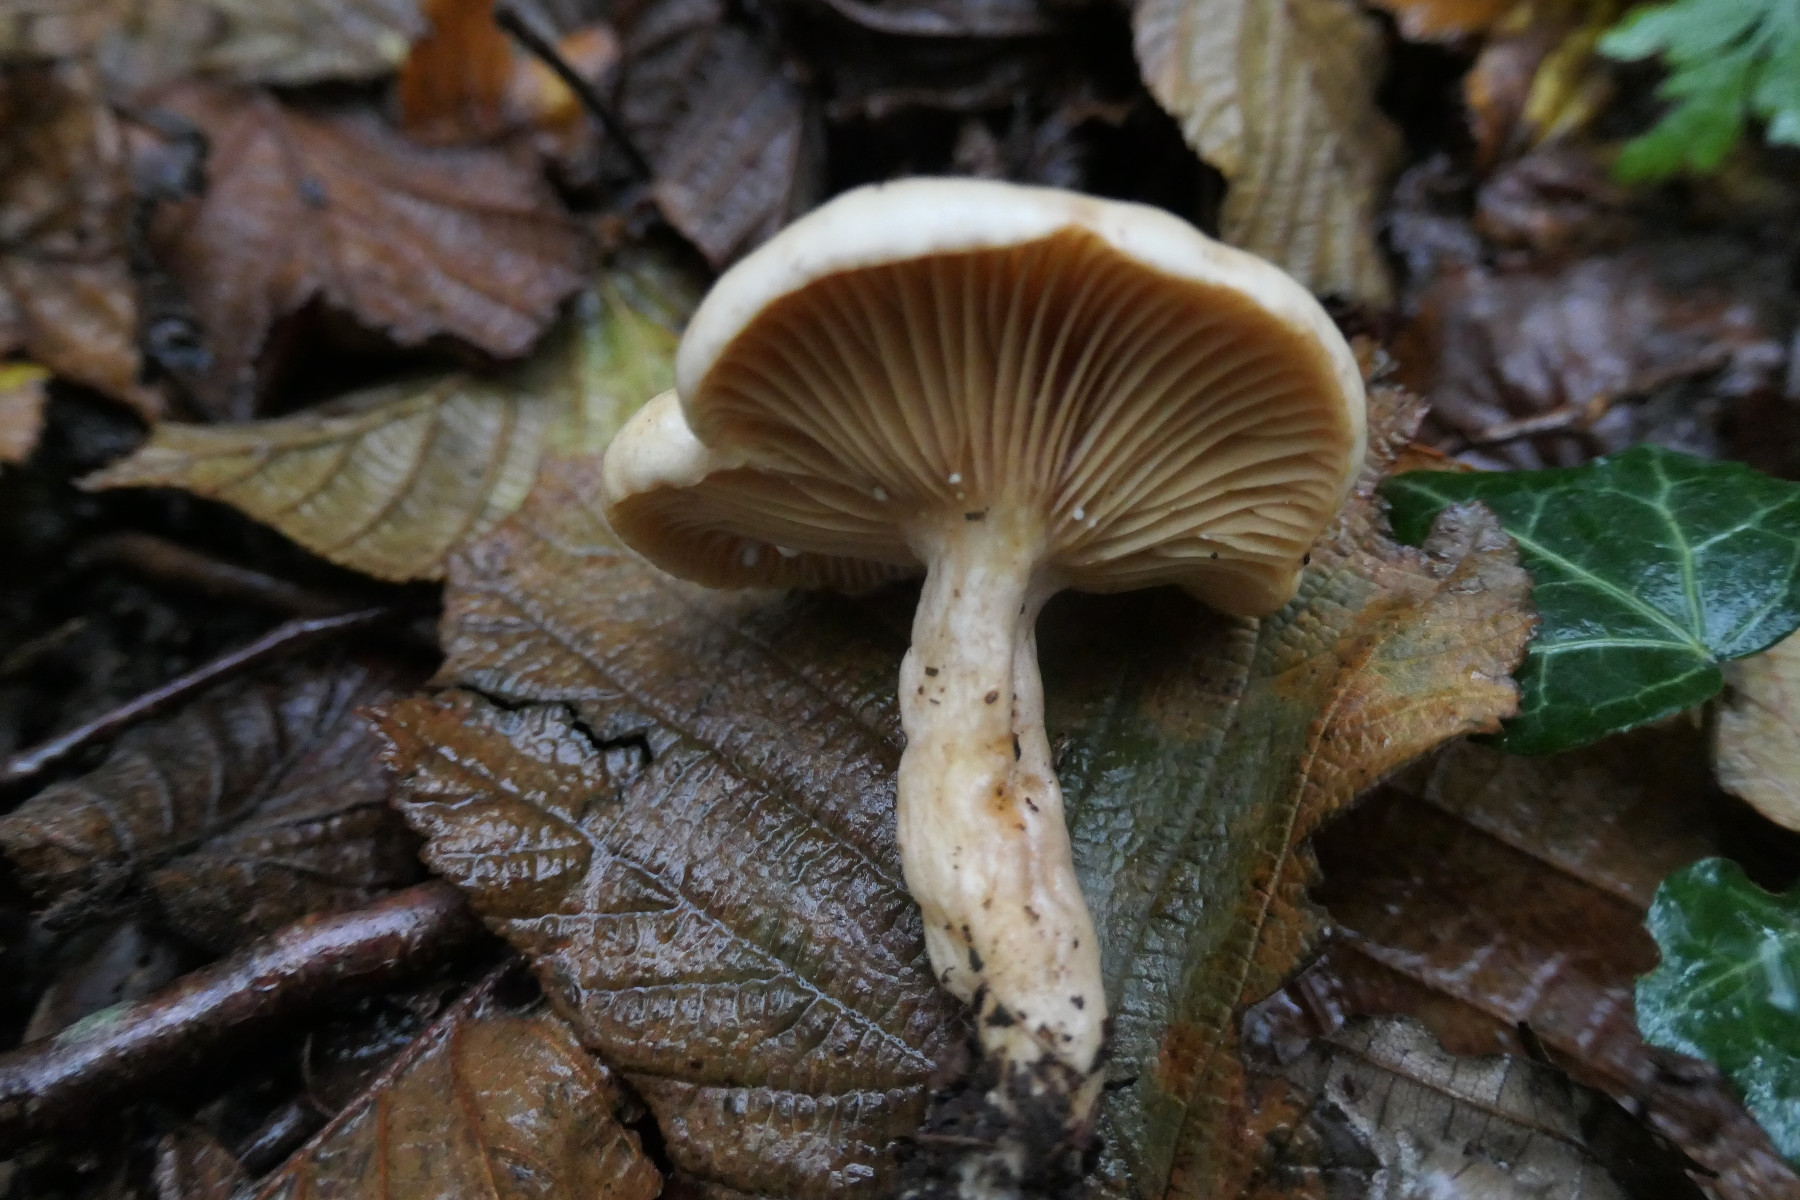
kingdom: Fungi
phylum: Basidiomycota
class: Agaricomycetes
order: Russulales
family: Russulaceae
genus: Lactarius
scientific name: Lactarius pyrogalus
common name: hassel-mælkehat
